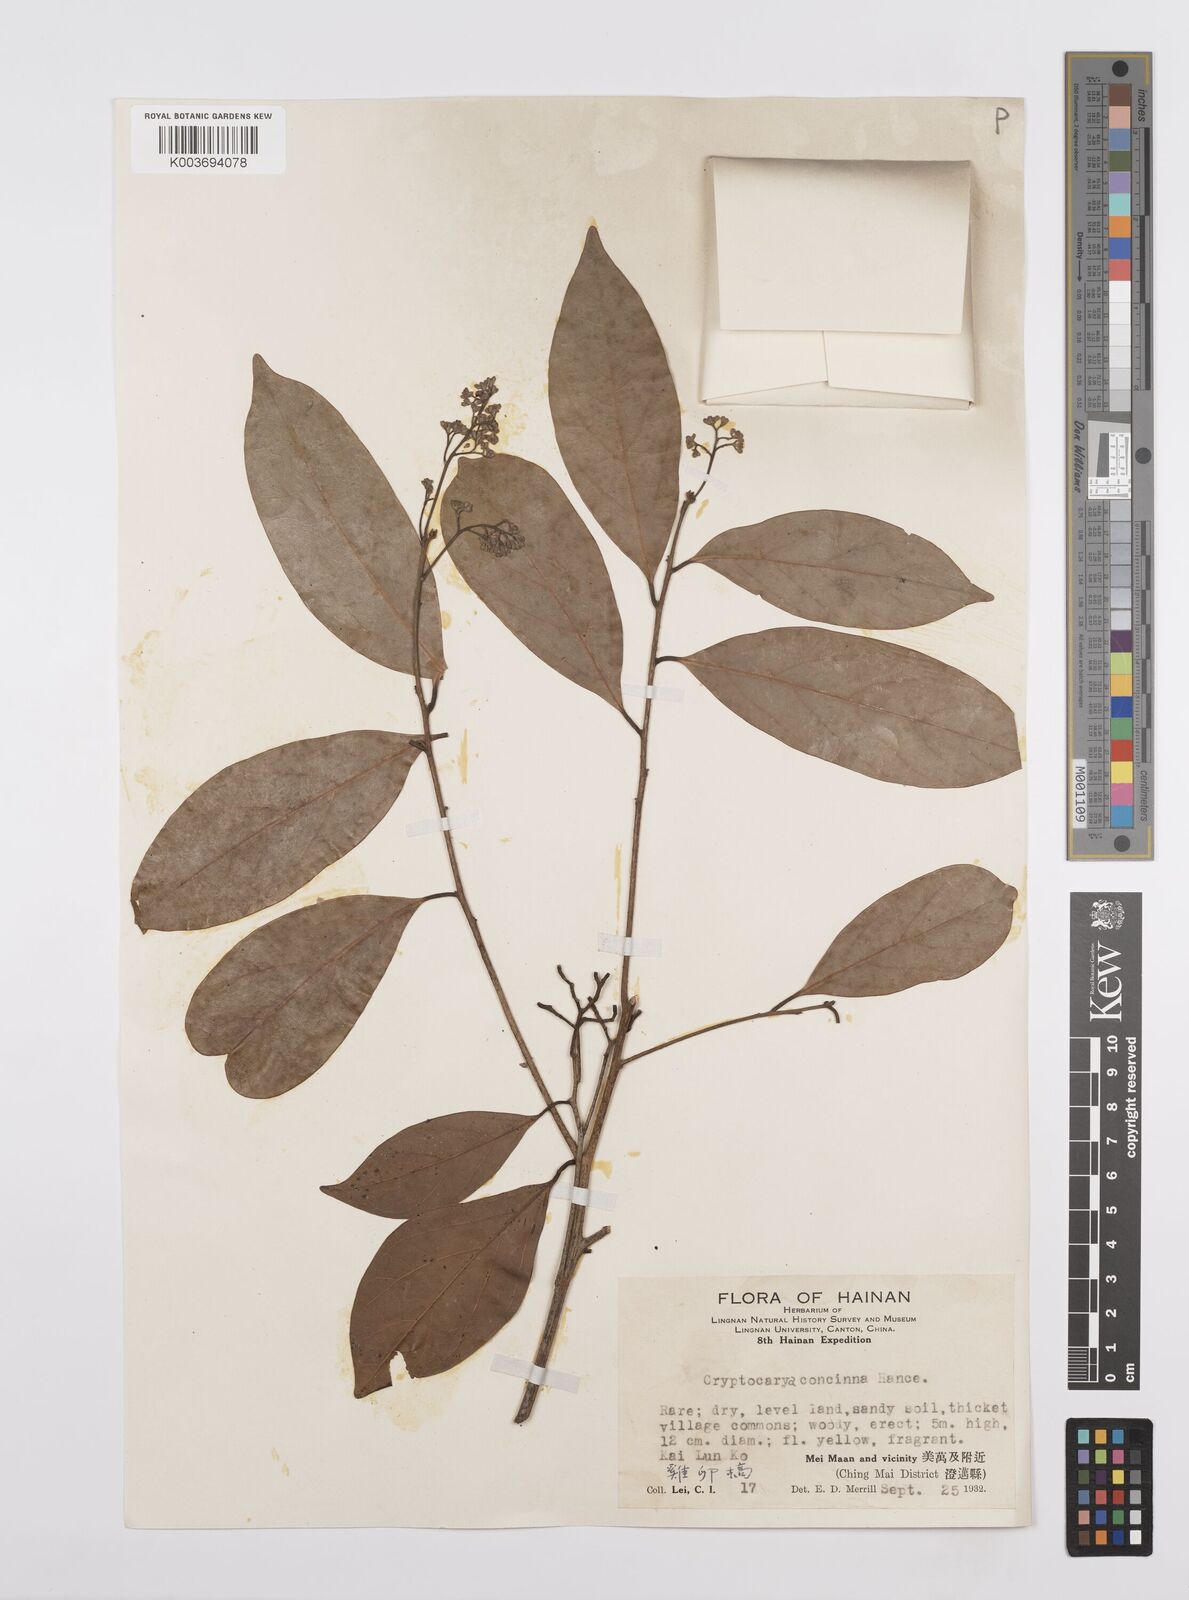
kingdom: Plantae
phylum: Tracheophyta
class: Magnoliopsida
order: Laurales
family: Lauraceae
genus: Cryptocarya
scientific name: Cryptocarya concinna
